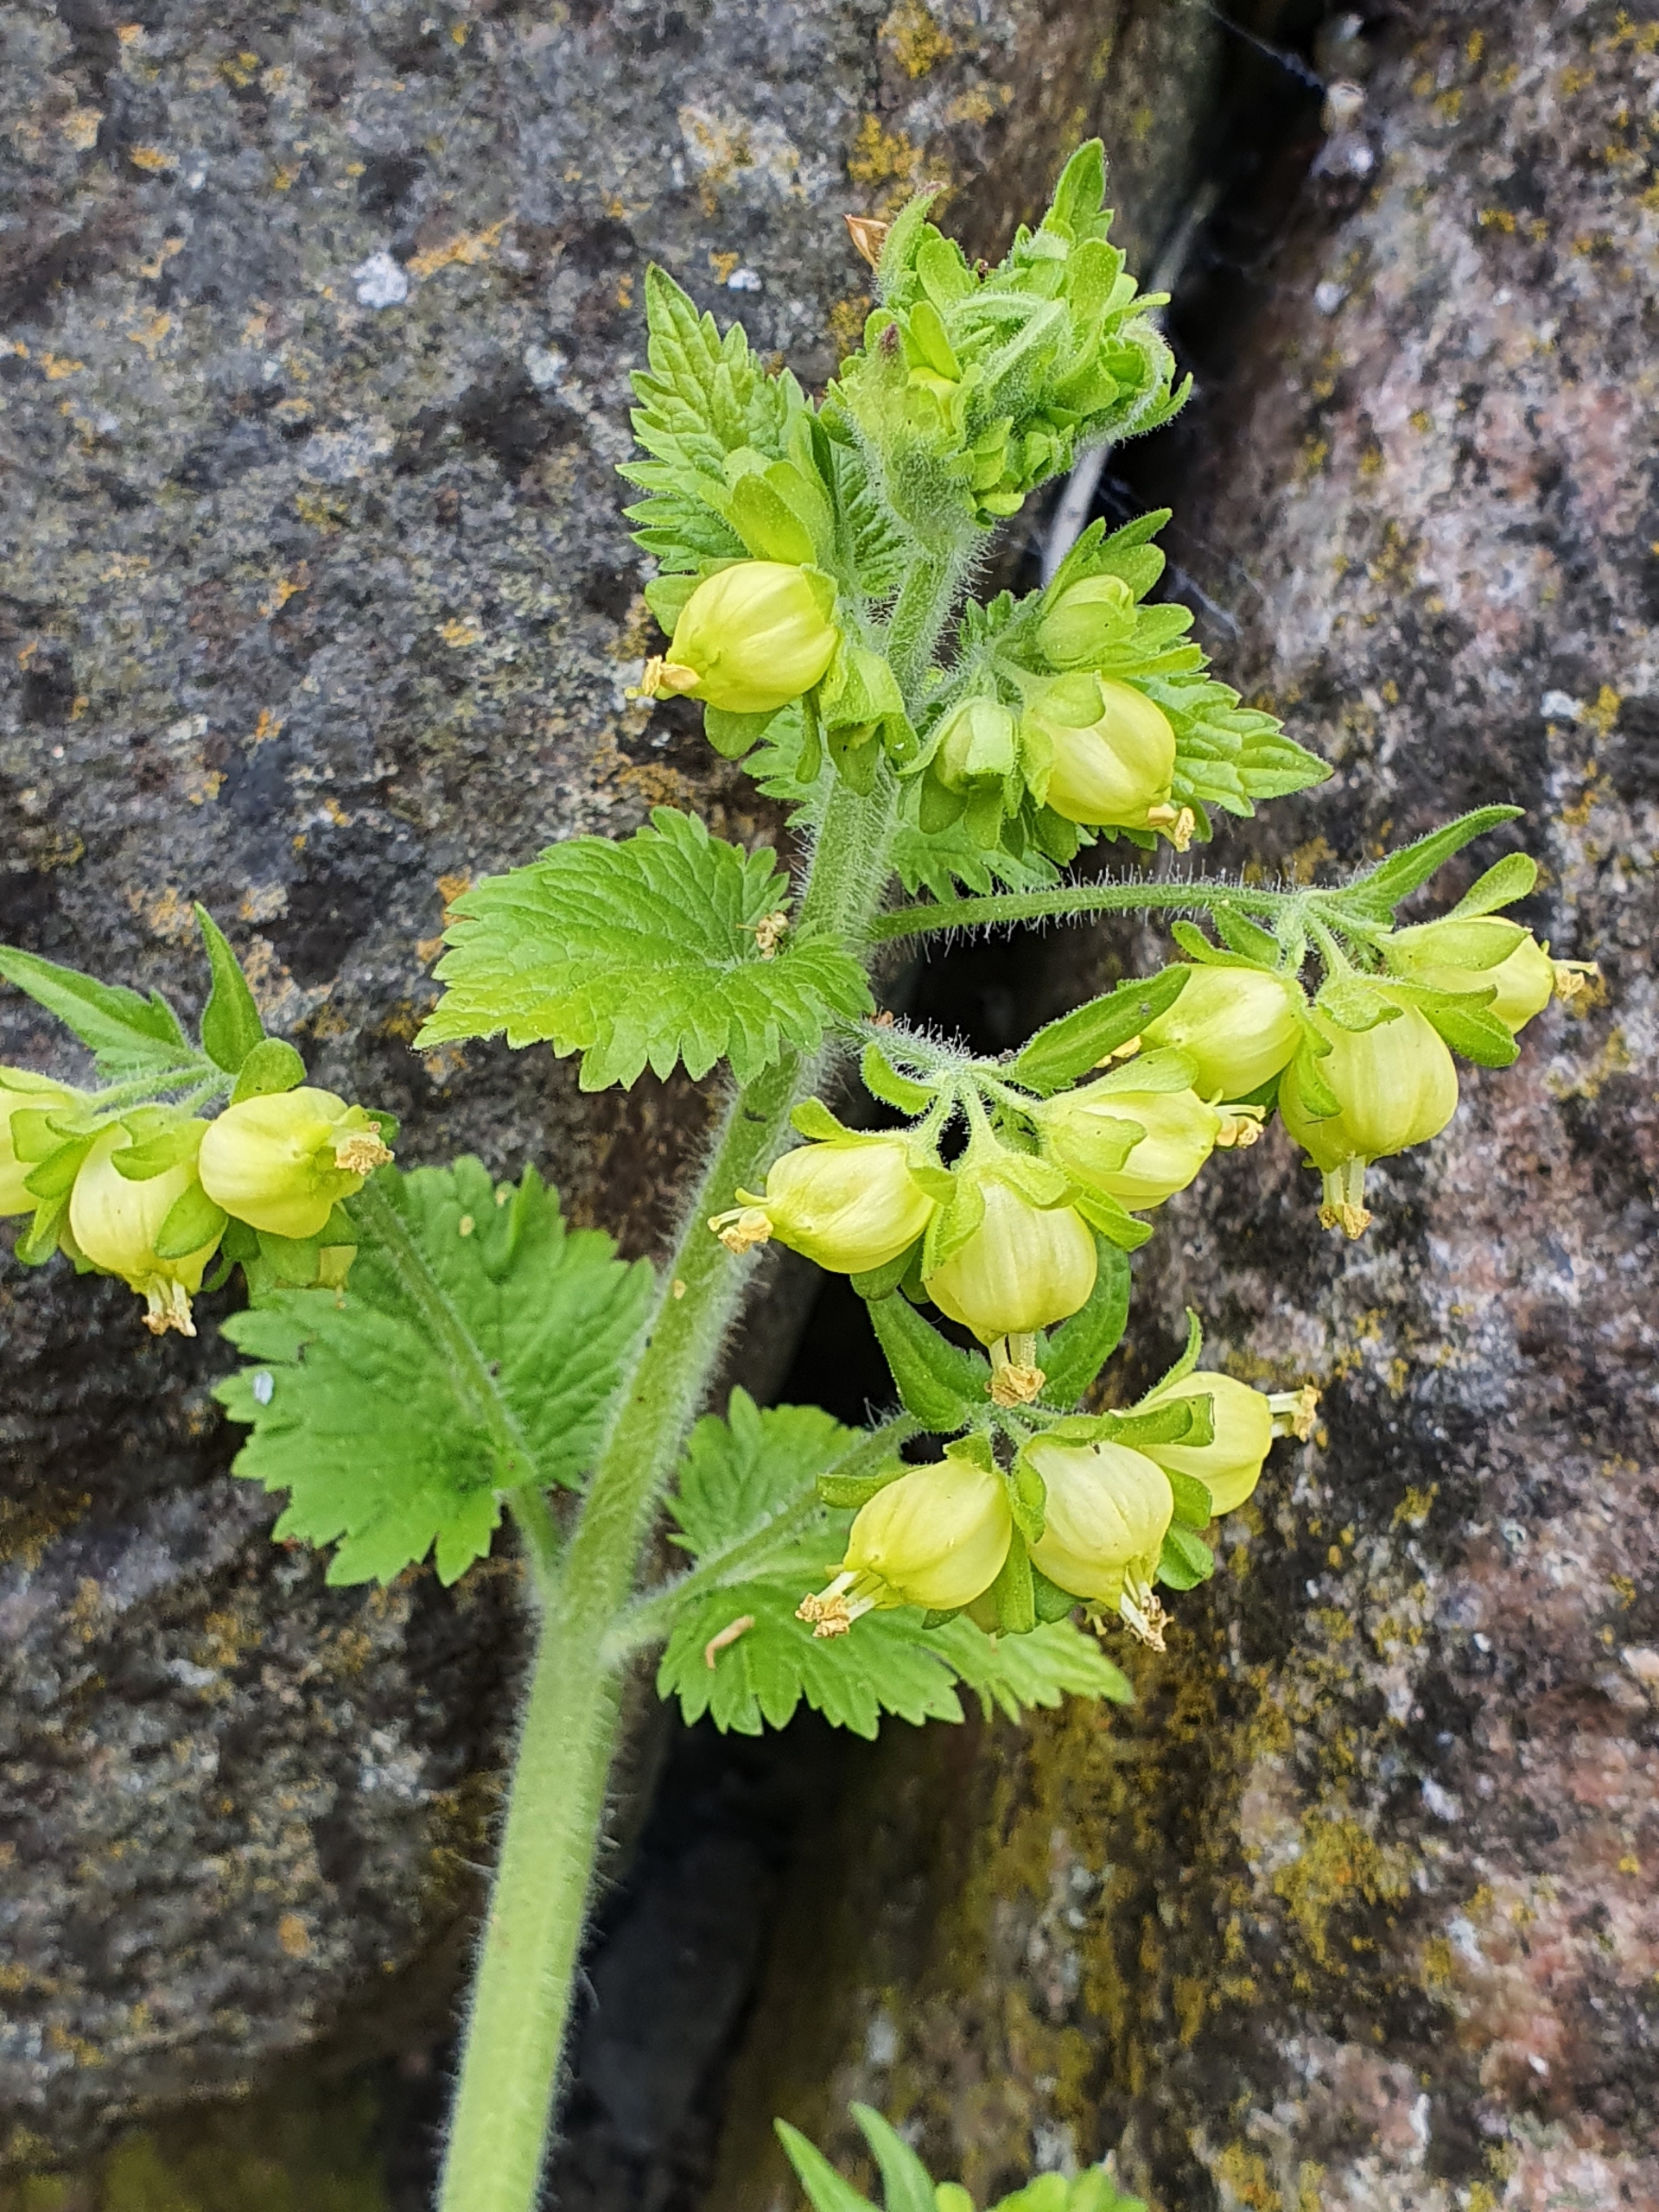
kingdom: Plantae
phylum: Tracheophyta
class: Magnoliopsida
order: Lamiales
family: Scrophulariaceae
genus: Scrophularia
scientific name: Scrophularia vernalis
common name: Vår-brunrod
